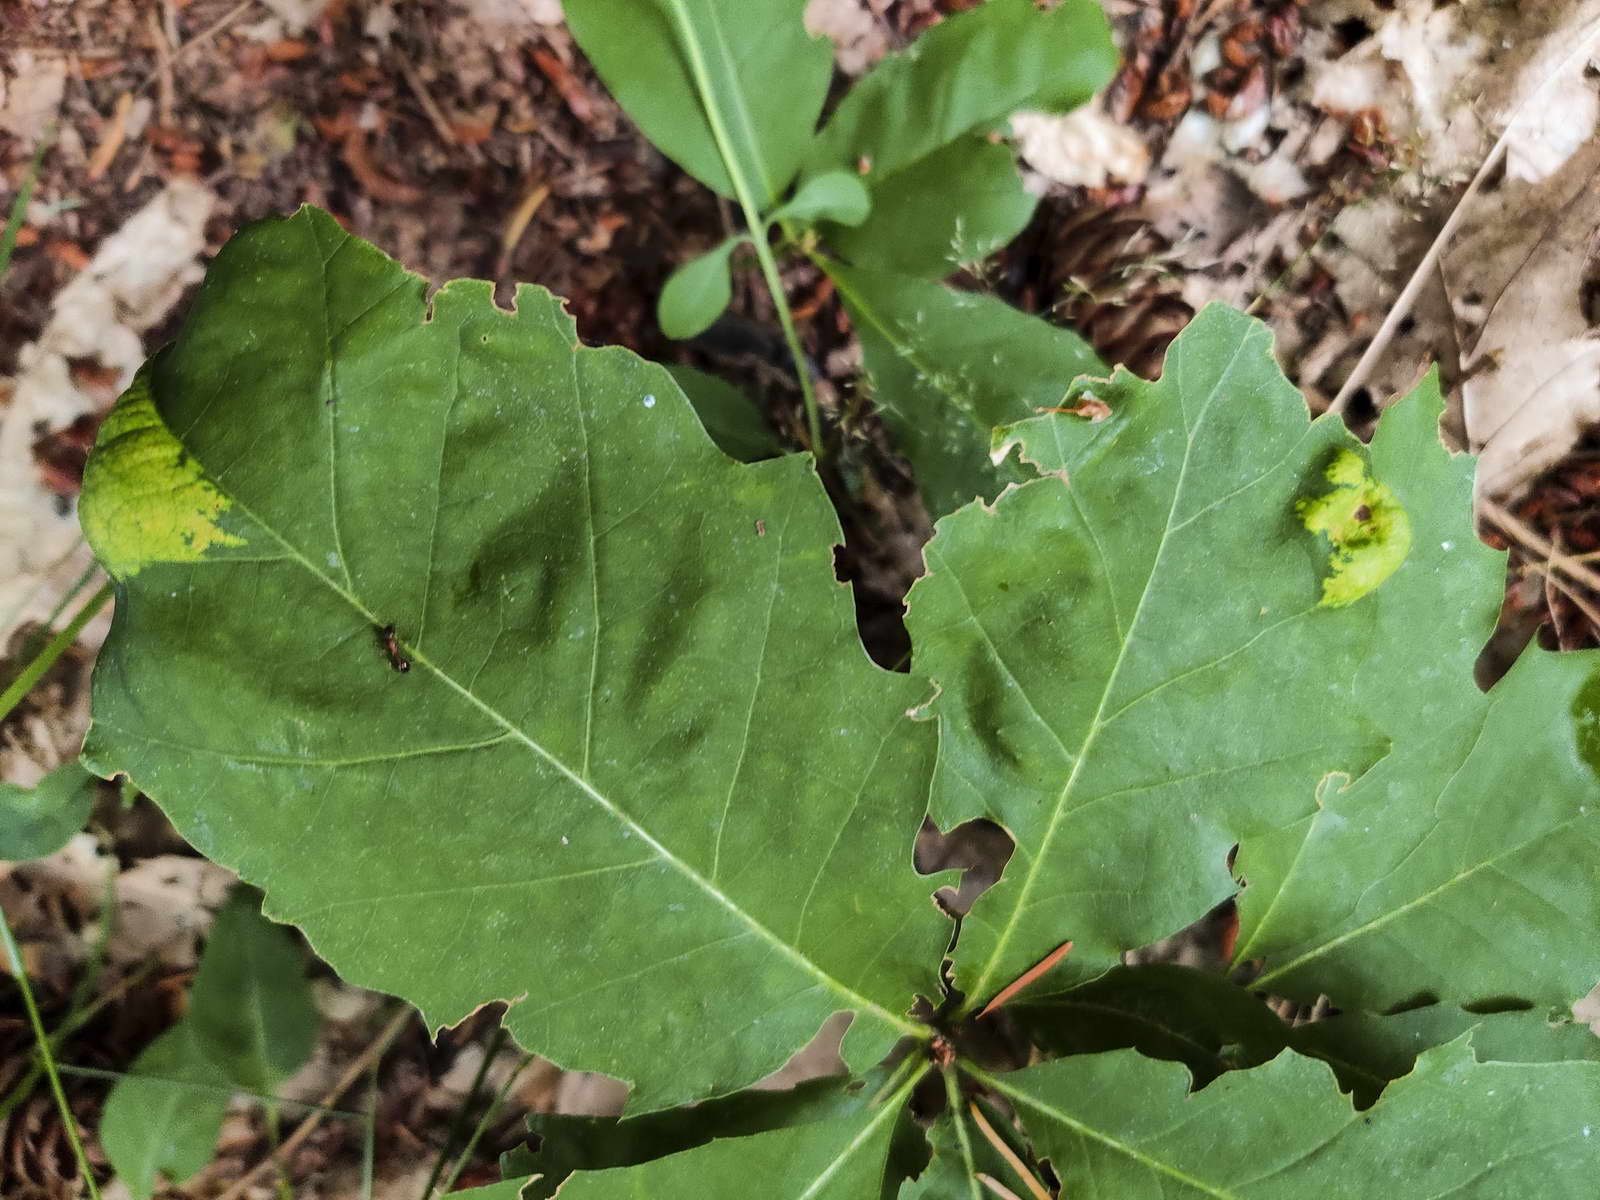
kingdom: Fungi
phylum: Ascomycota
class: Taphrinomycetes
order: Taphrinales
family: Taphrinaceae
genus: Taphrina
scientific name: Taphrina caerulescens
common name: Oak leaf blister
